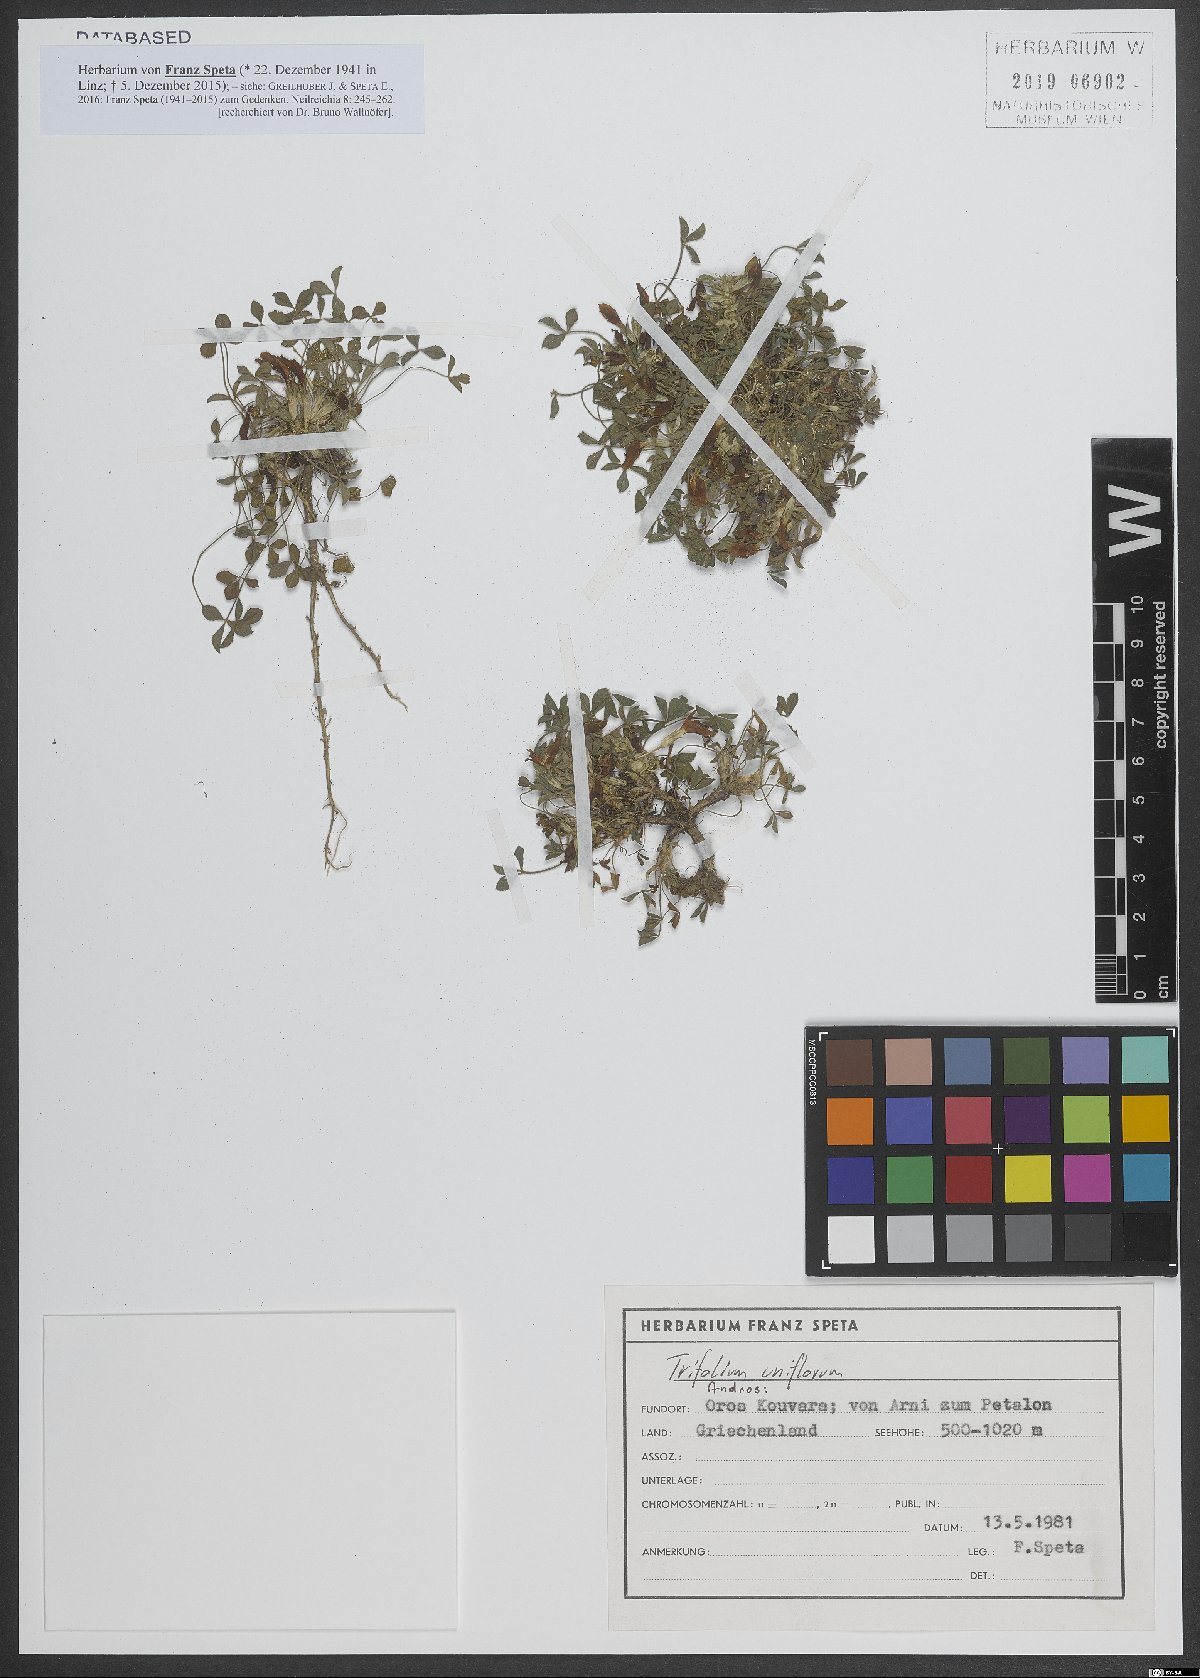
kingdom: Plantae
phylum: Tracheophyta
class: Magnoliopsida
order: Fabales
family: Fabaceae
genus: Trifolium
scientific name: Trifolium uniflorum
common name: One-flower clover
